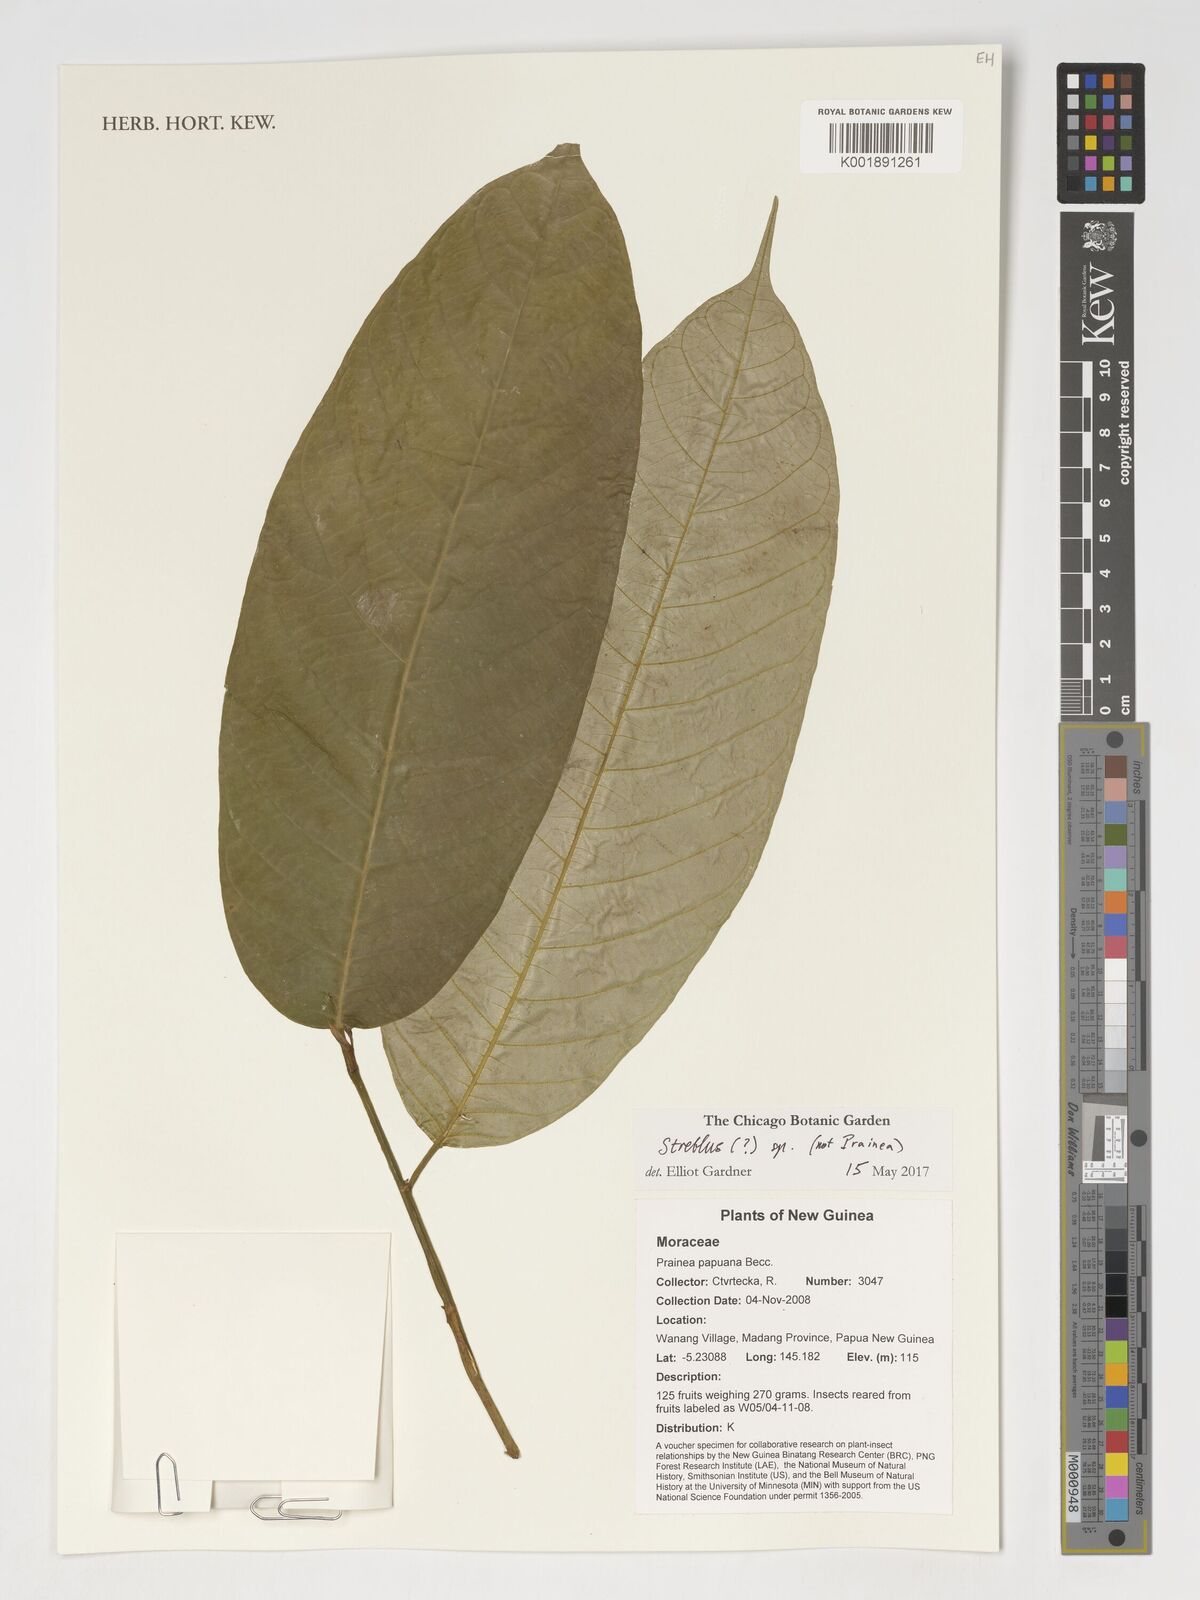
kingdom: Plantae
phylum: Tracheophyta
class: Magnoliopsida
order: Rosales
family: Moraceae
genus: Streblus
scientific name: Streblus
